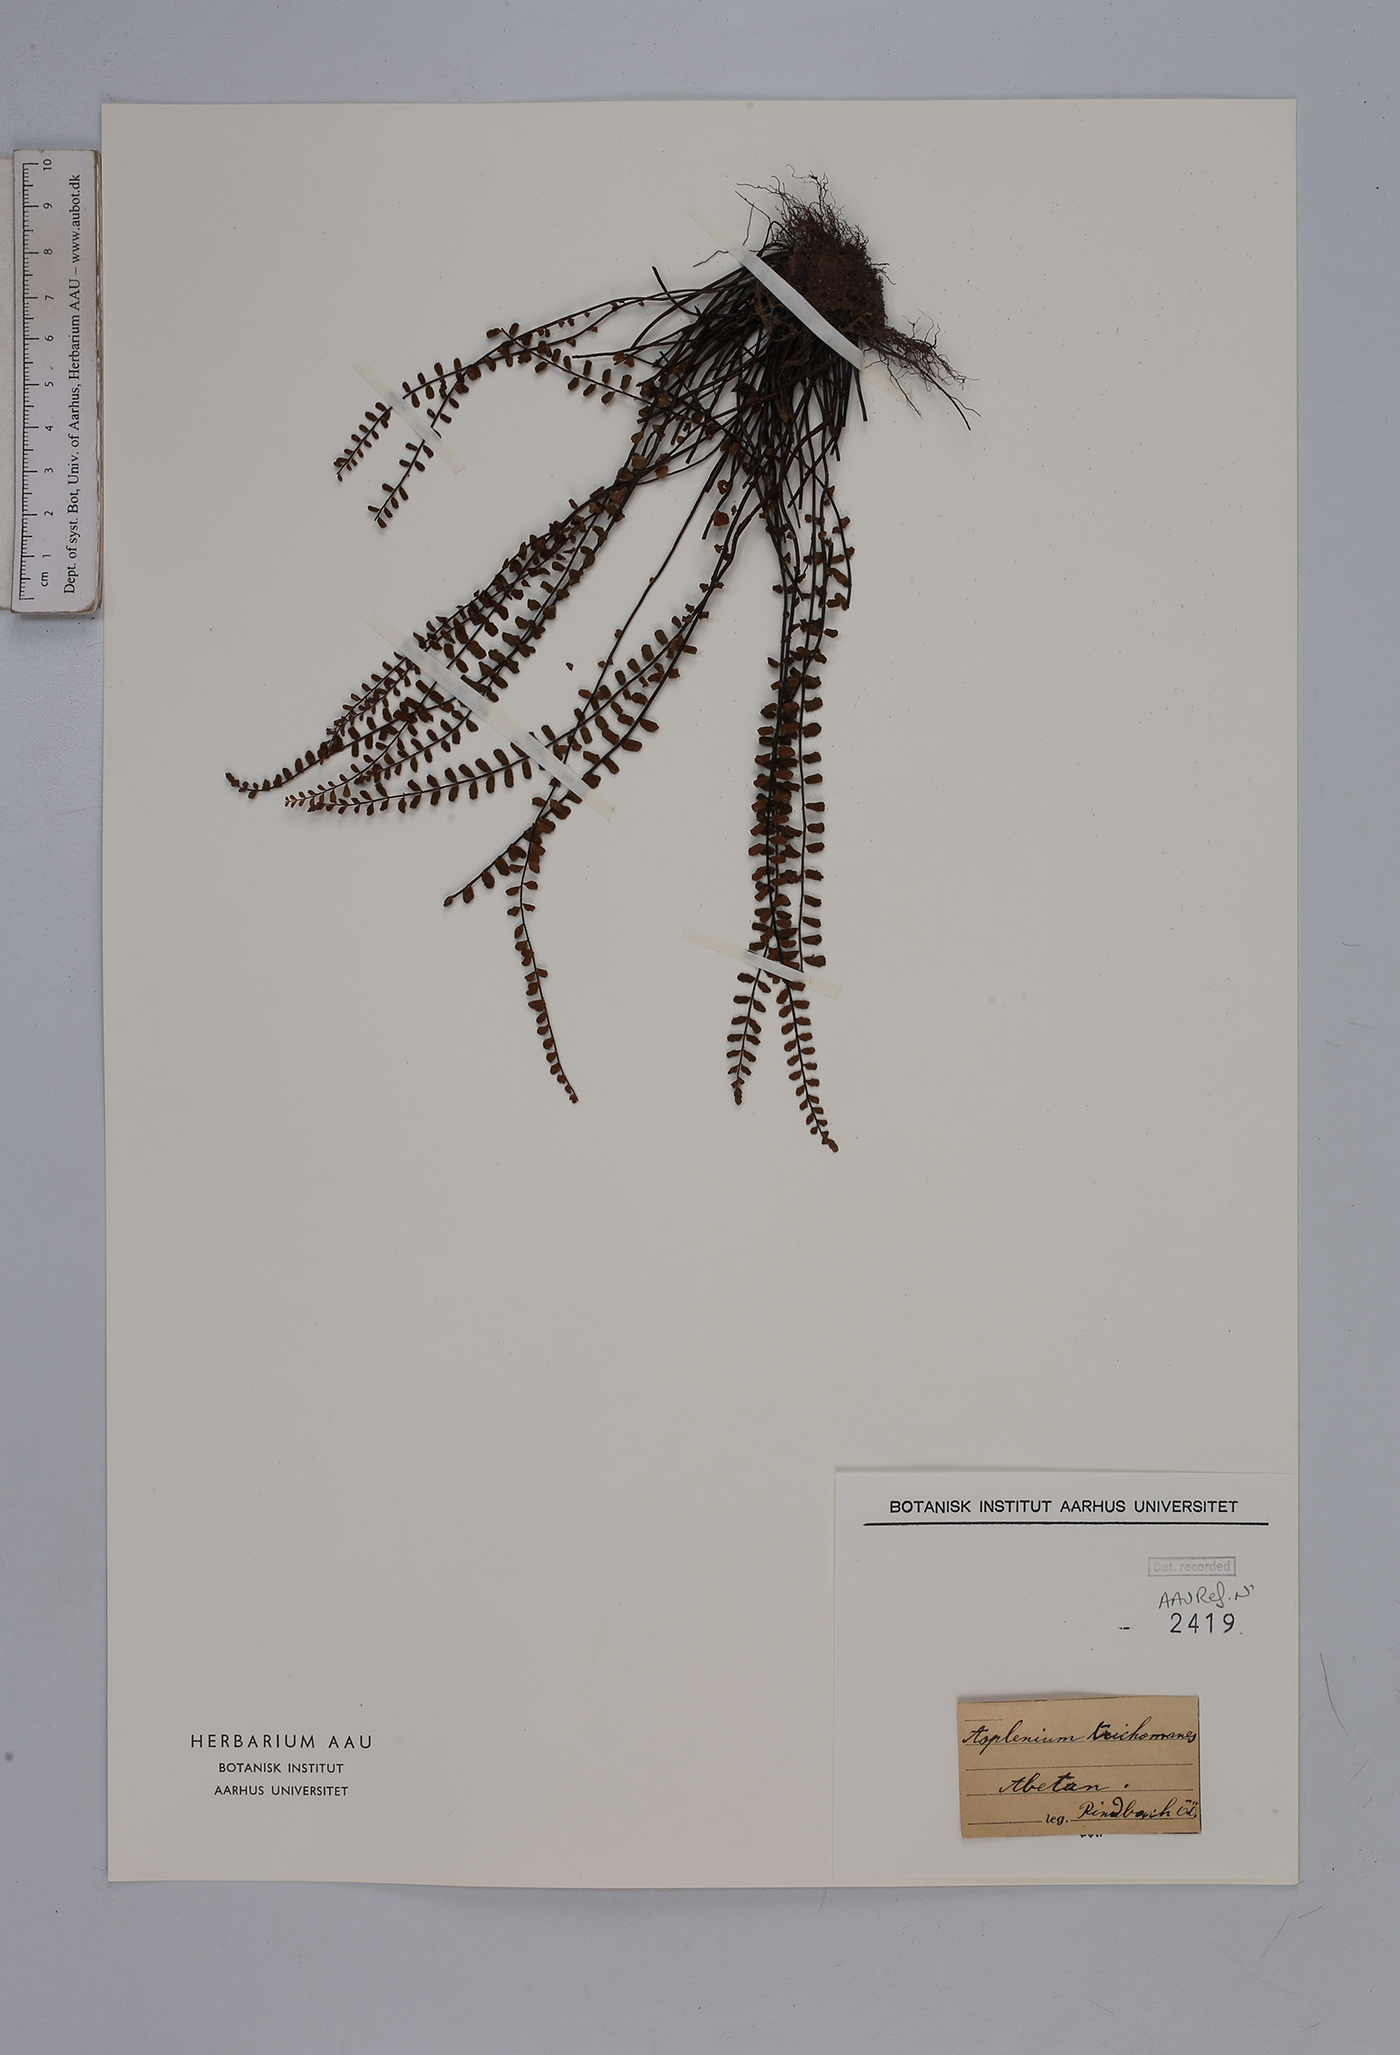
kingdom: Plantae
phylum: Tracheophyta
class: Polypodiopsida
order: Polypodiales
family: Aspleniaceae
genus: Asplenium
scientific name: Asplenium trichomanes
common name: Maidenhair spleenwort
